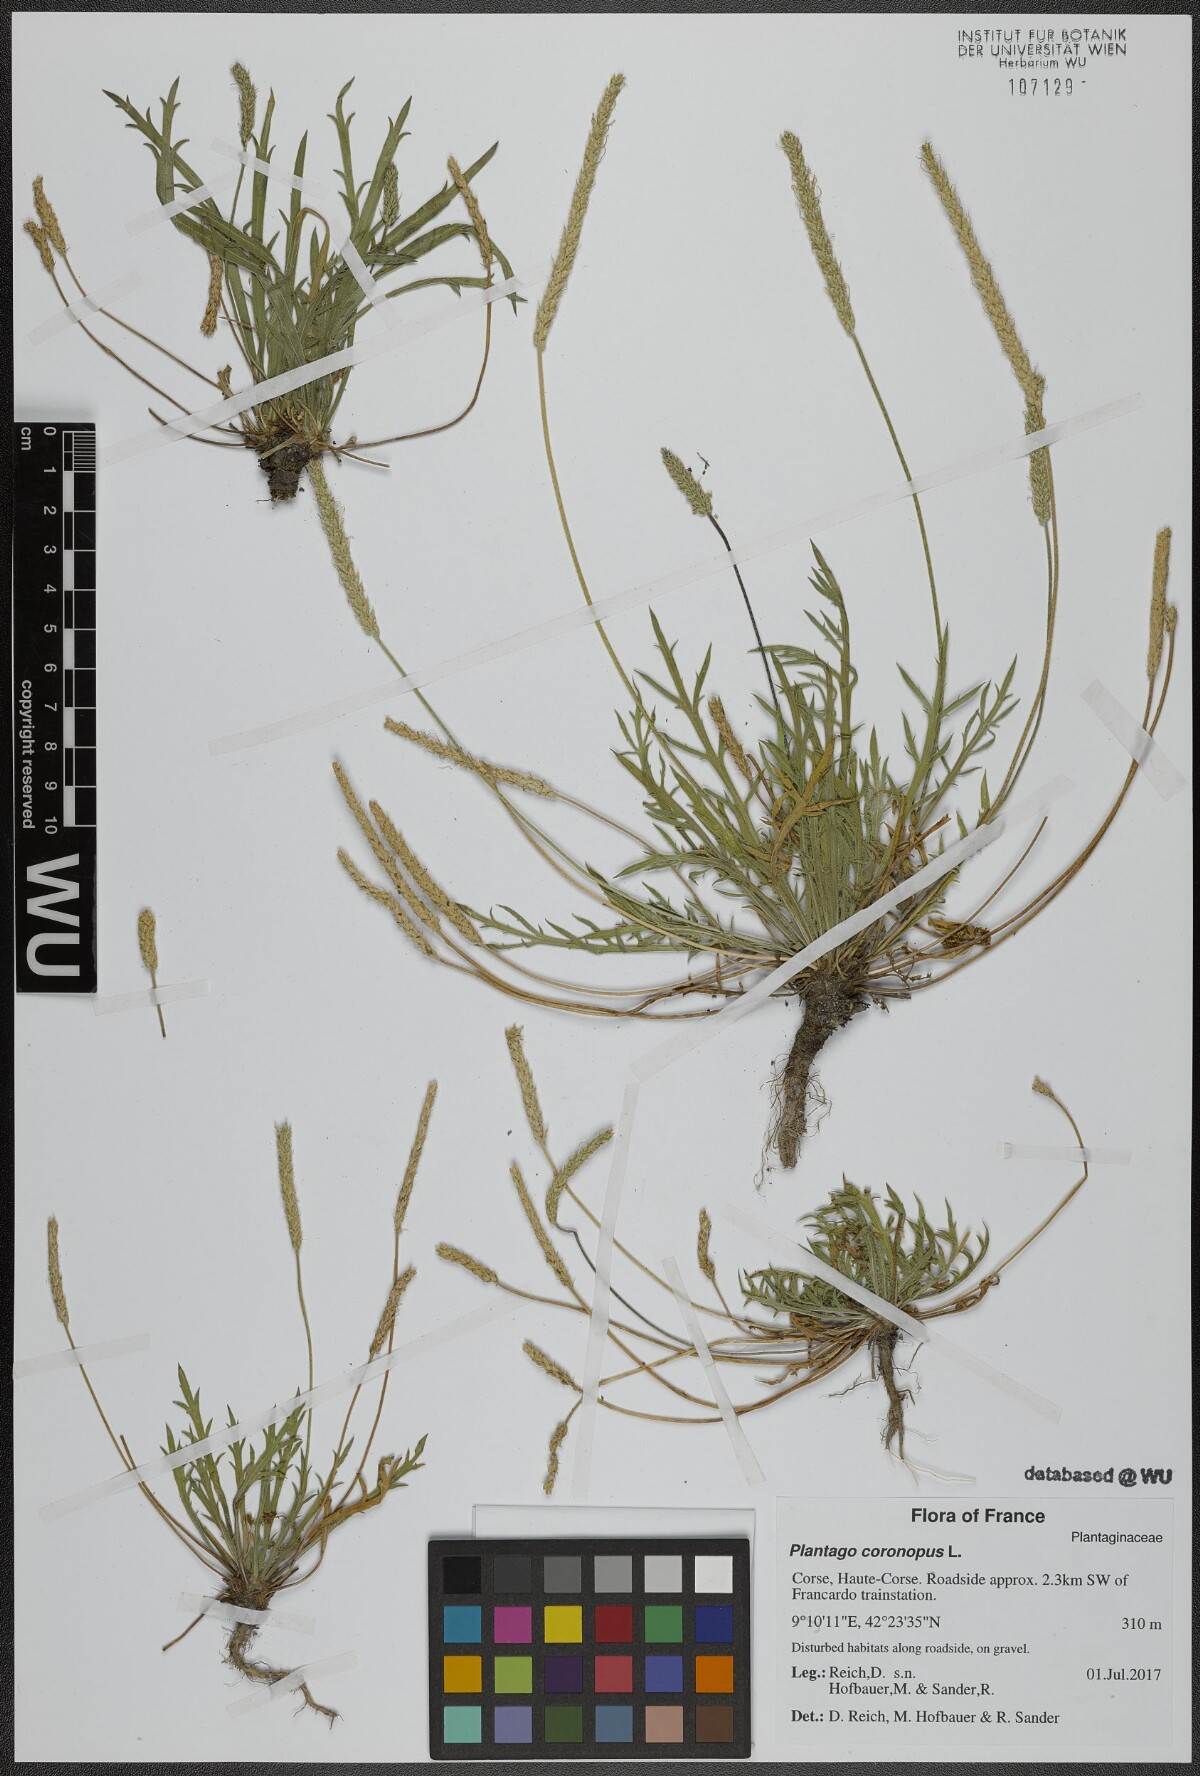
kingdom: Plantae
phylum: Tracheophyta
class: Magnoliopsida
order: Lamiales
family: Plantaginaceae
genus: Plantago
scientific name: Plantago coronopus
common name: Buck's-horn plantain
